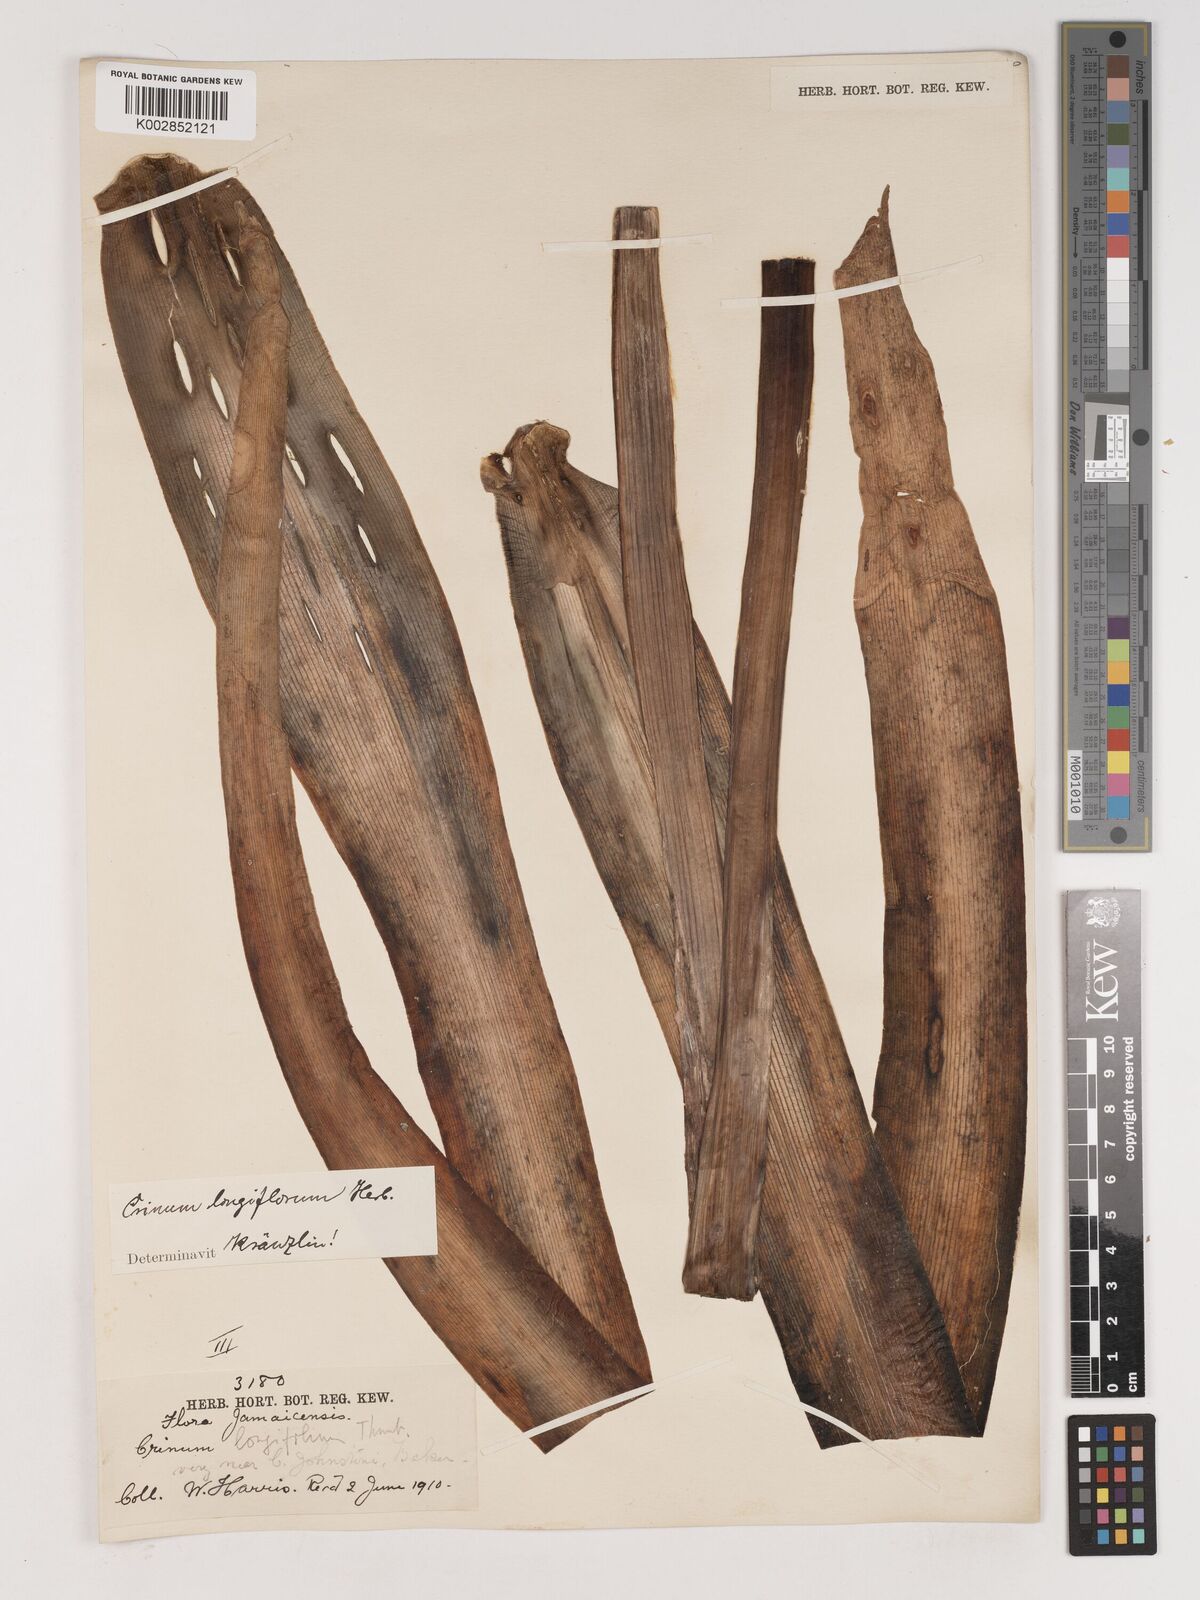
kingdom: Plantae
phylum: Tracheophyta
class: Liliopsida
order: Asparagales
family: Amaryllidaceae
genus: Crinum
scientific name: Crinum latifolium
